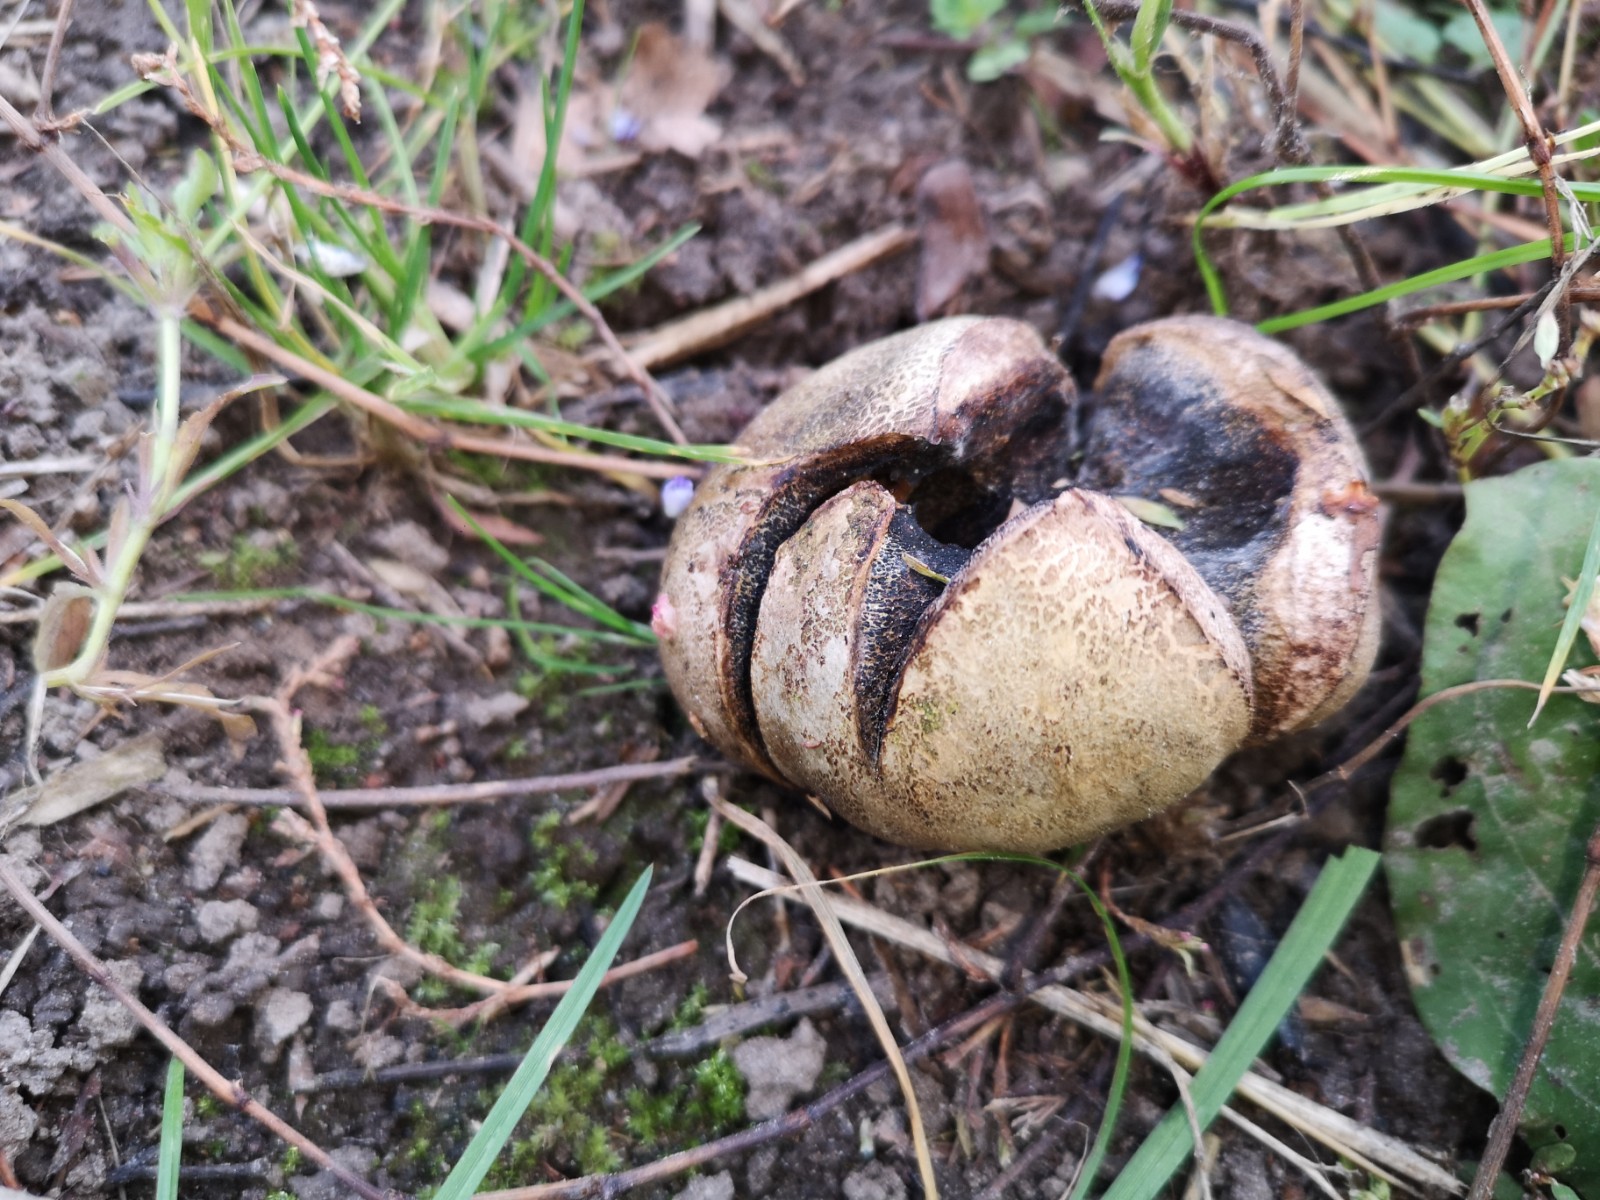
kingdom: Fungi
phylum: Basidiomycota
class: Agaricomycetes
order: Boletales
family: Sclerodermataceae
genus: Scleroderma
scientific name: Scleroderma
